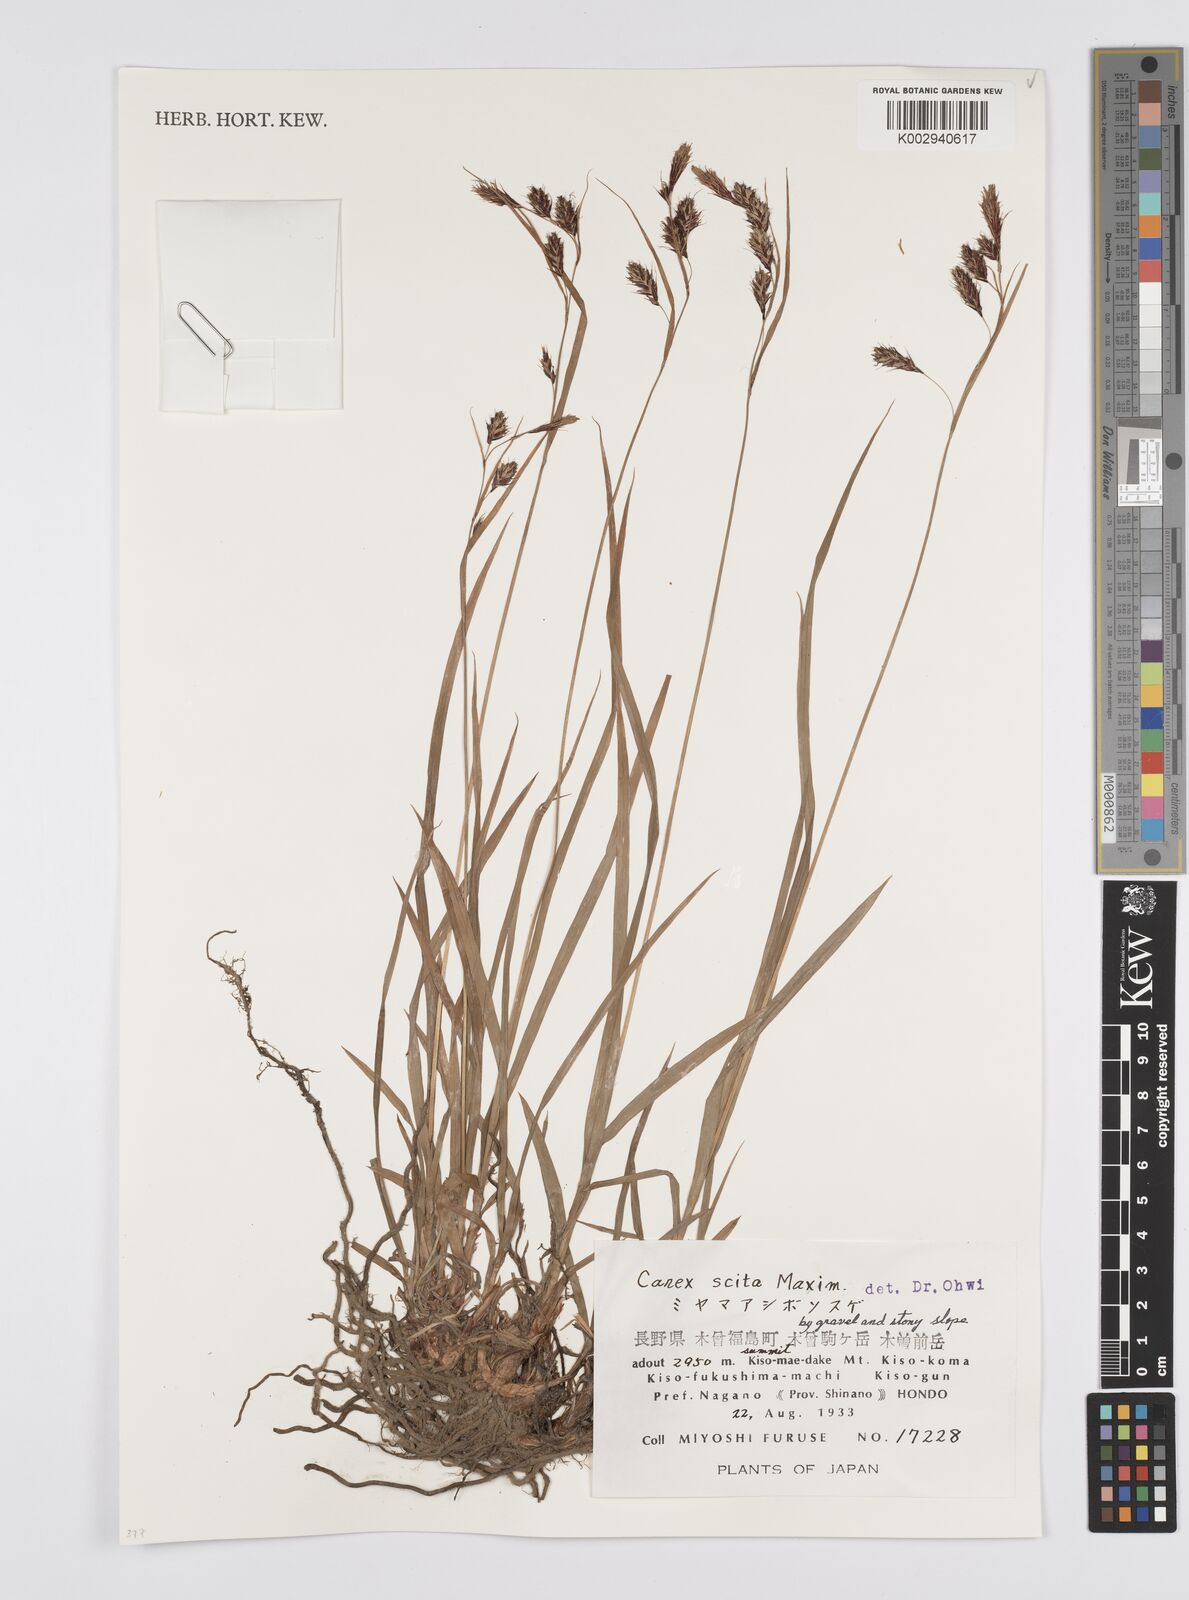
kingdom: Plantae
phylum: Tracheophyta
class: Liliopsida
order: Poales
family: Cyperaceae
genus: Carex
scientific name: Carex scita
